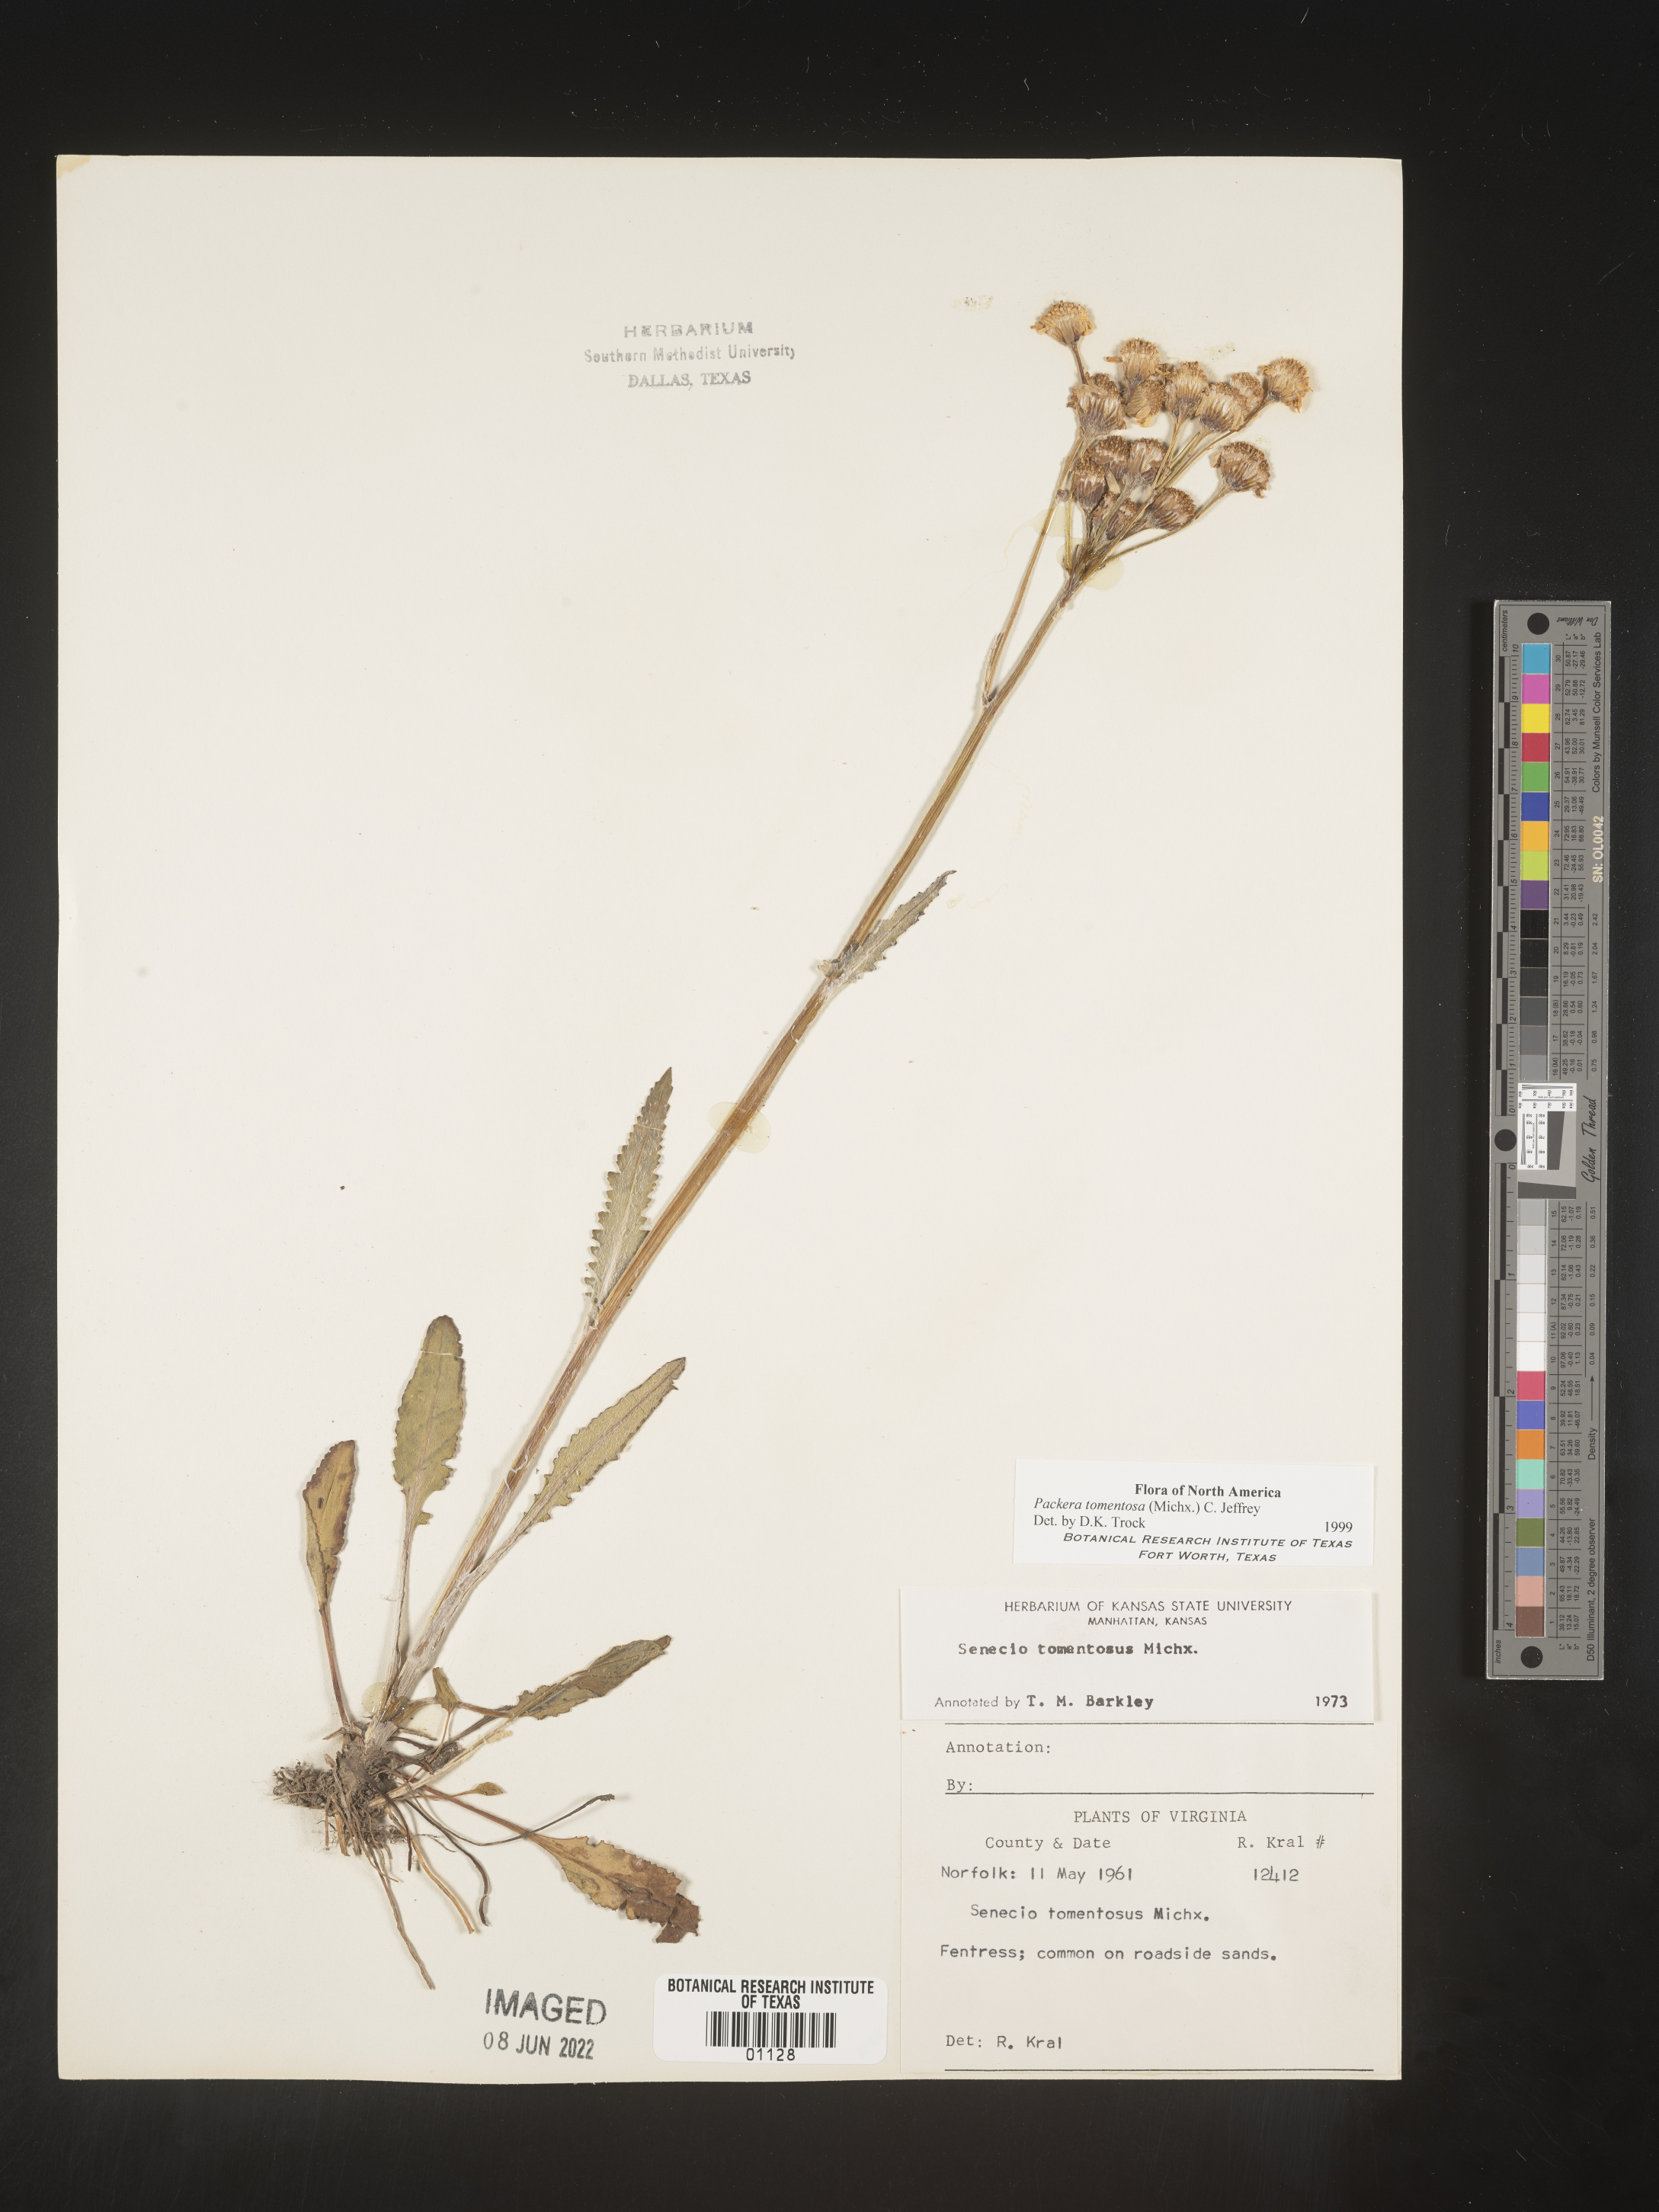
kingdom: Plantae
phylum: Tracheophyta
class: Magnoliopsida
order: Asterales
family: Asteraceae
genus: Packera
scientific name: Packera dubia
